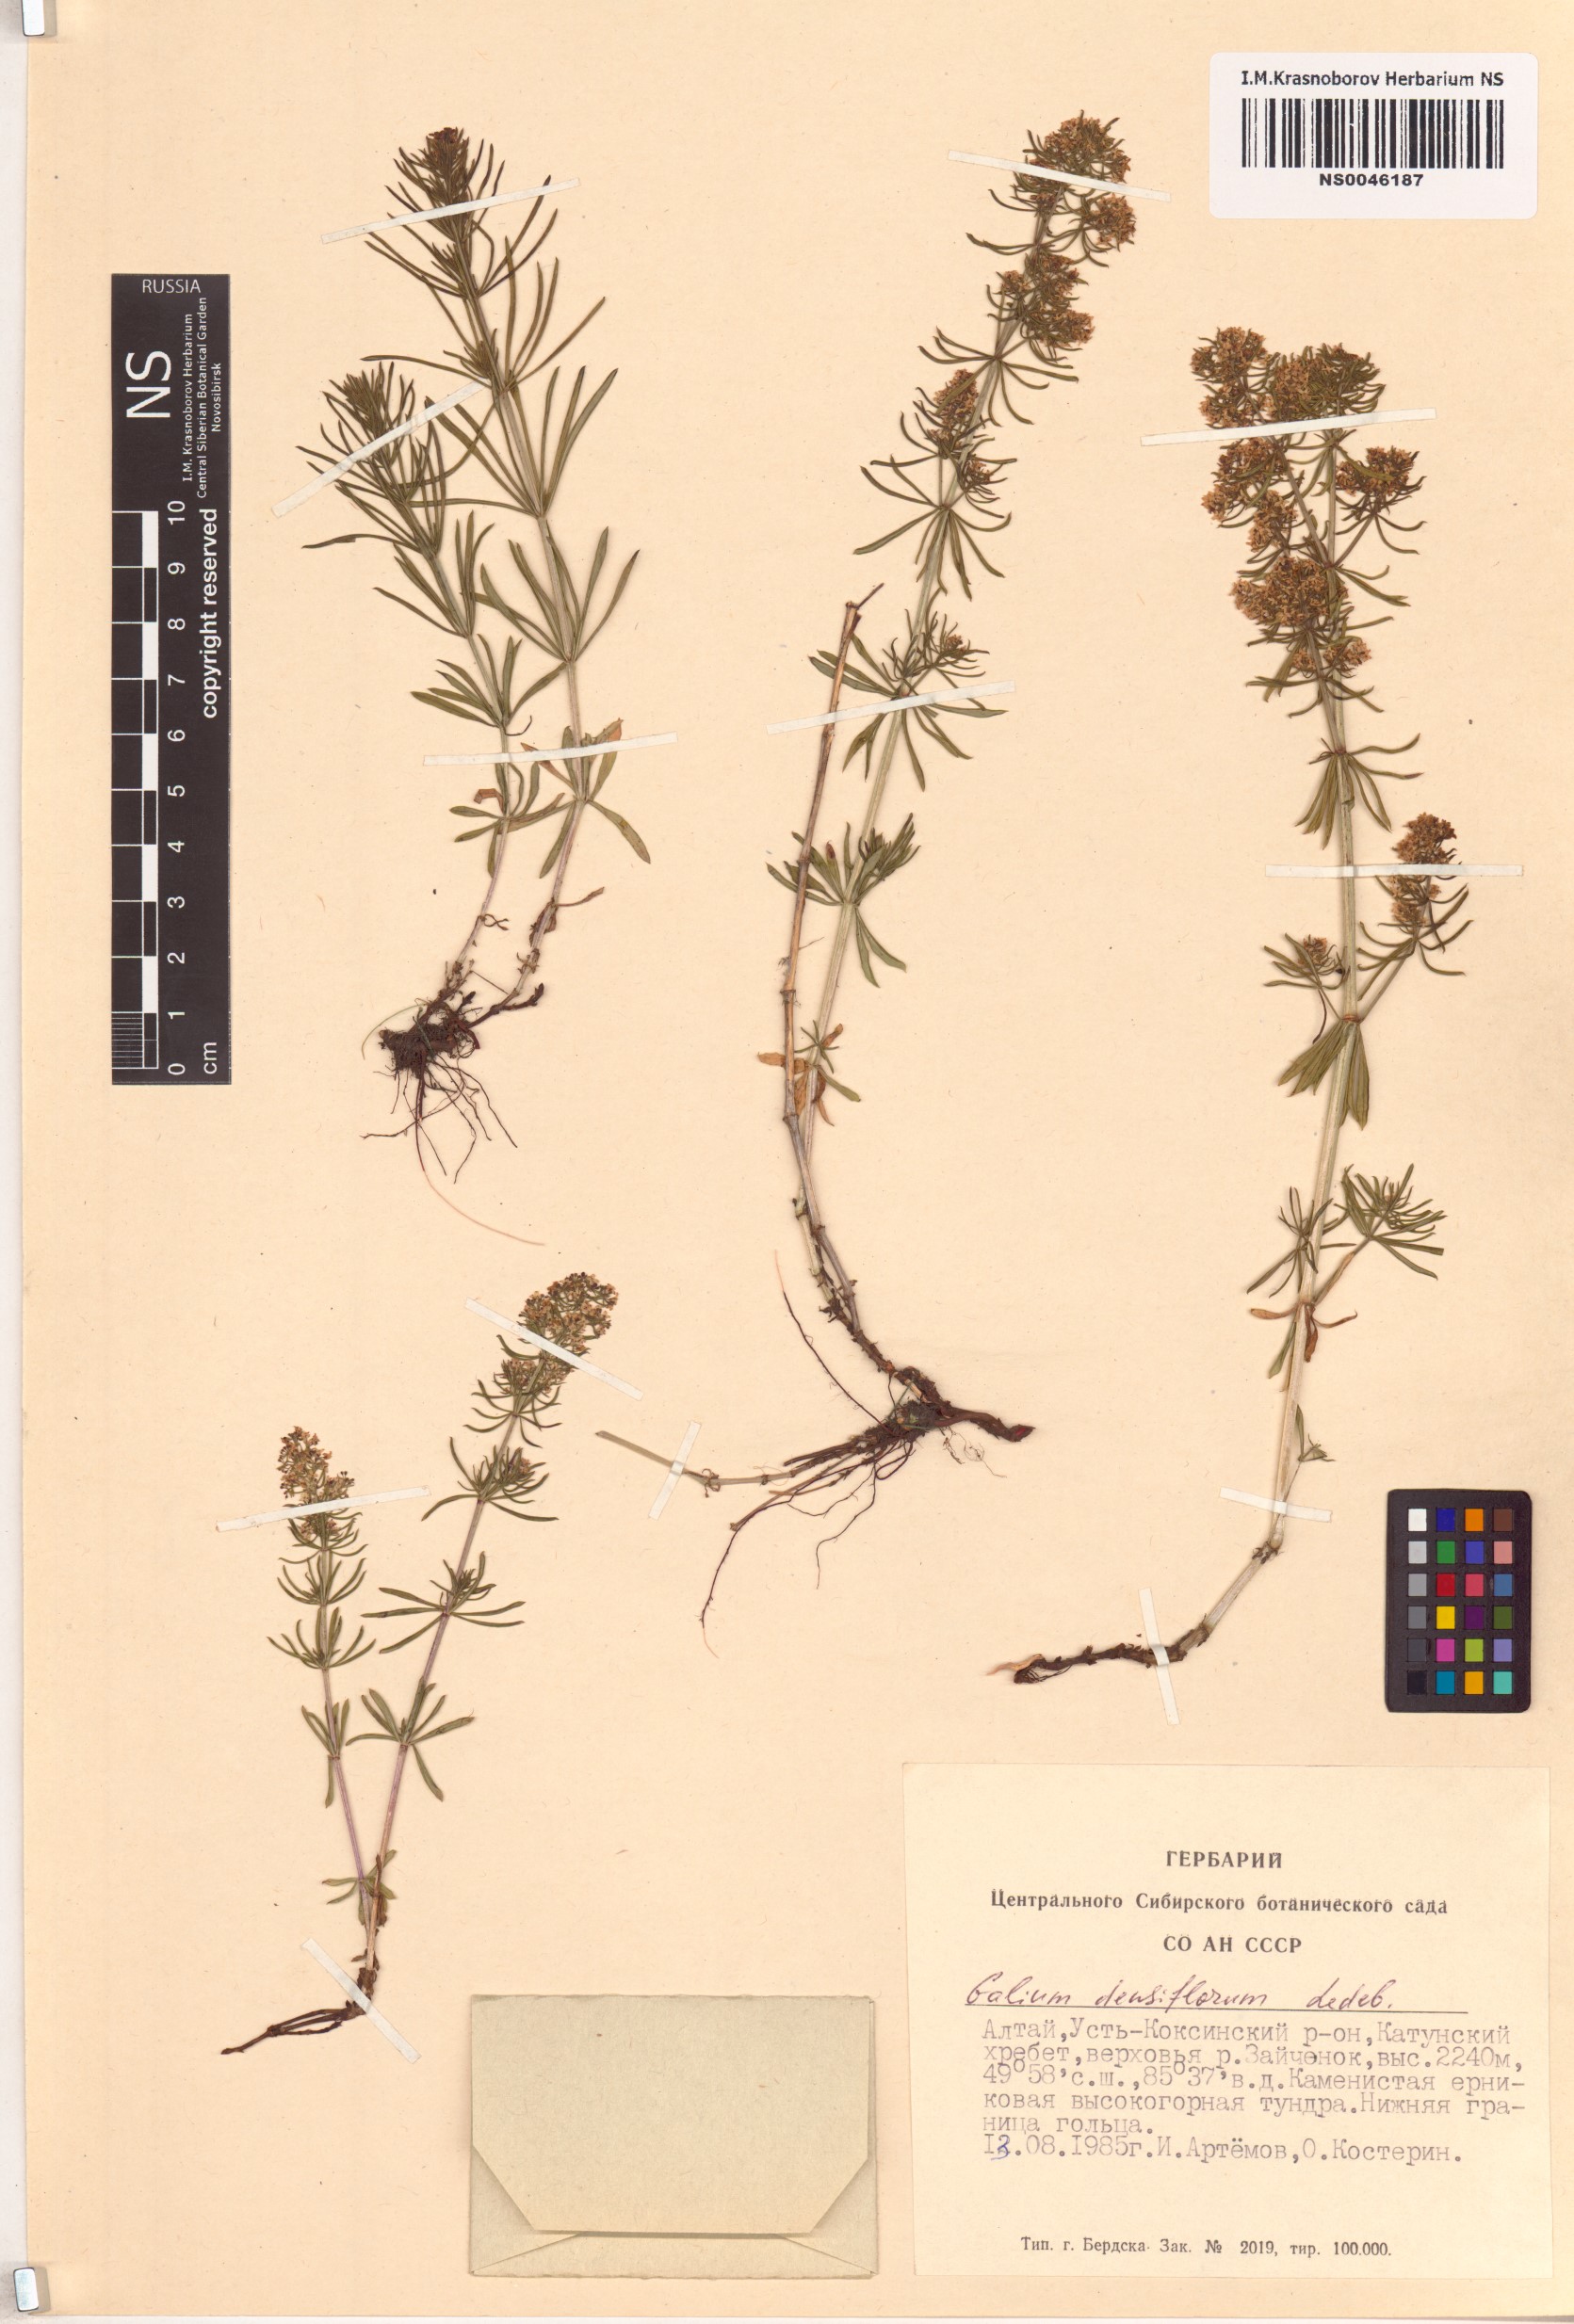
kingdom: Plantae
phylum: Tracheophyta
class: Magnoliopsida
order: Gentianales
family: Rubiaceae
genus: Galium
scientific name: Galium densiflorum
